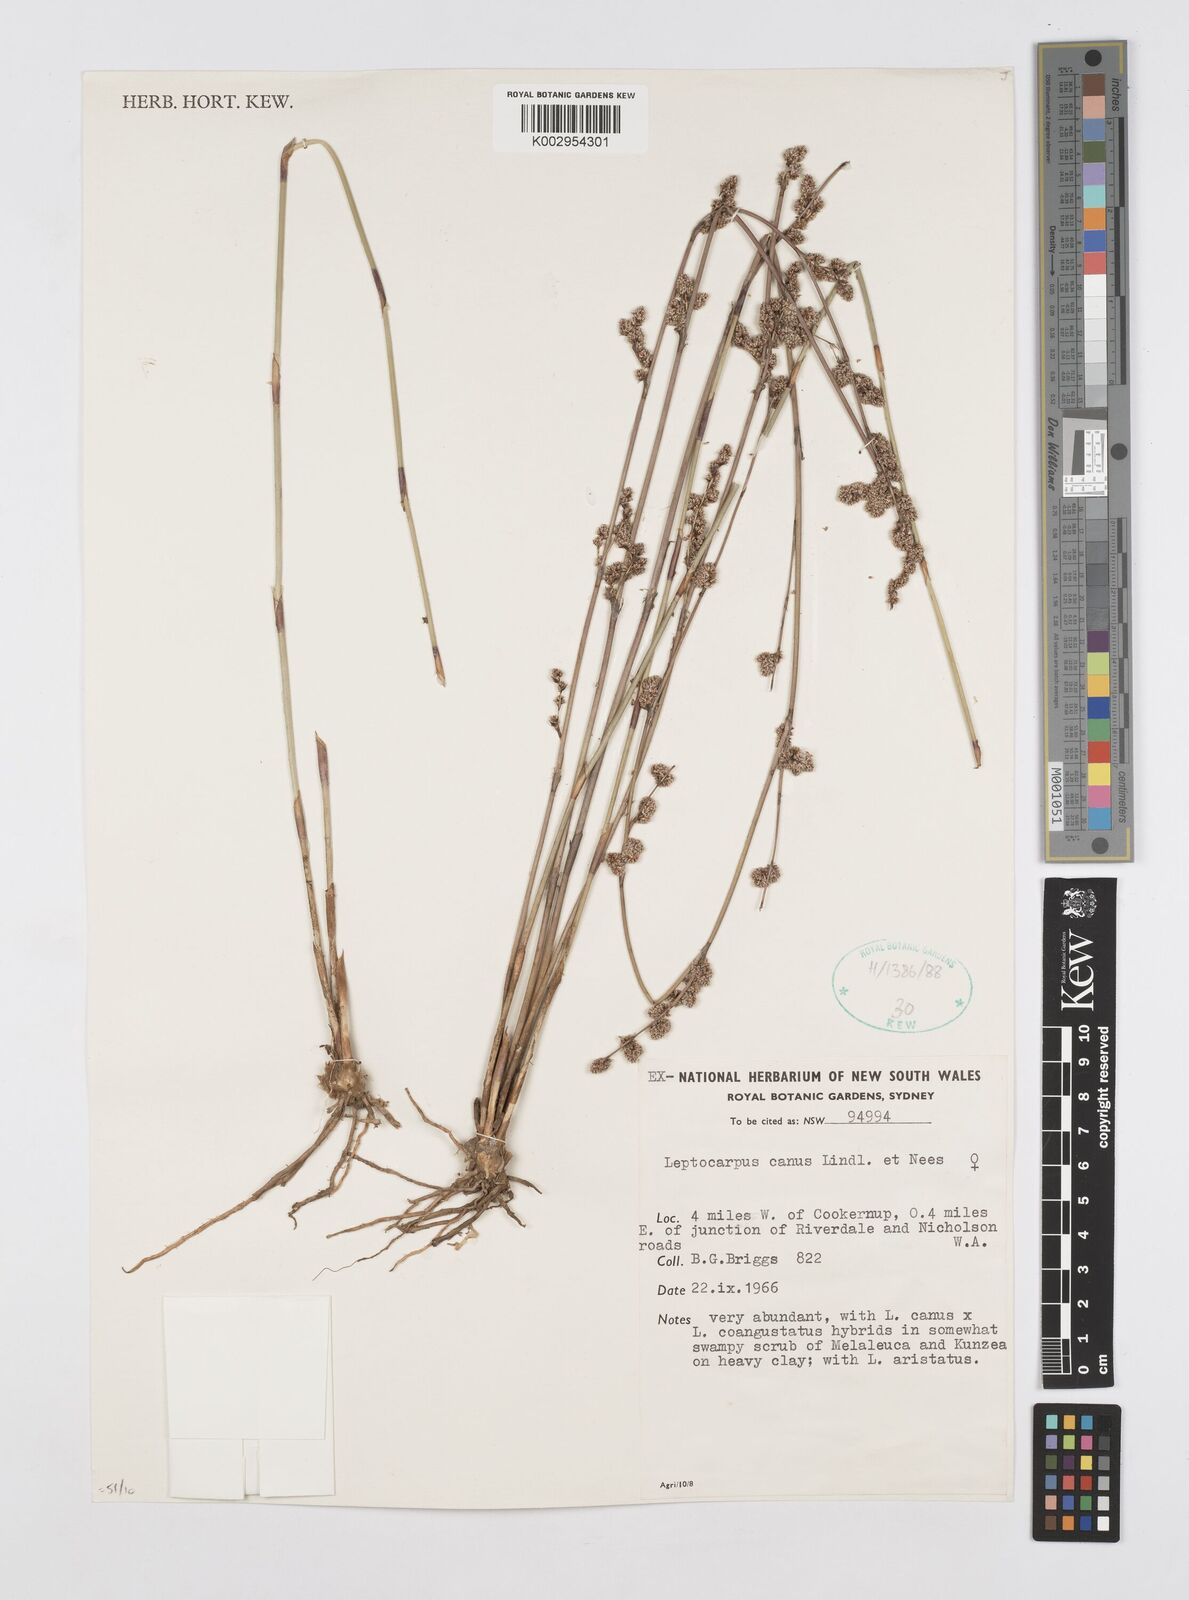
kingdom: Plantae
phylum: Tracheophyta
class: Liliopsida
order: Poales
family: Restionaceae
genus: Leptocarpus
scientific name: Leptocarpus canus
